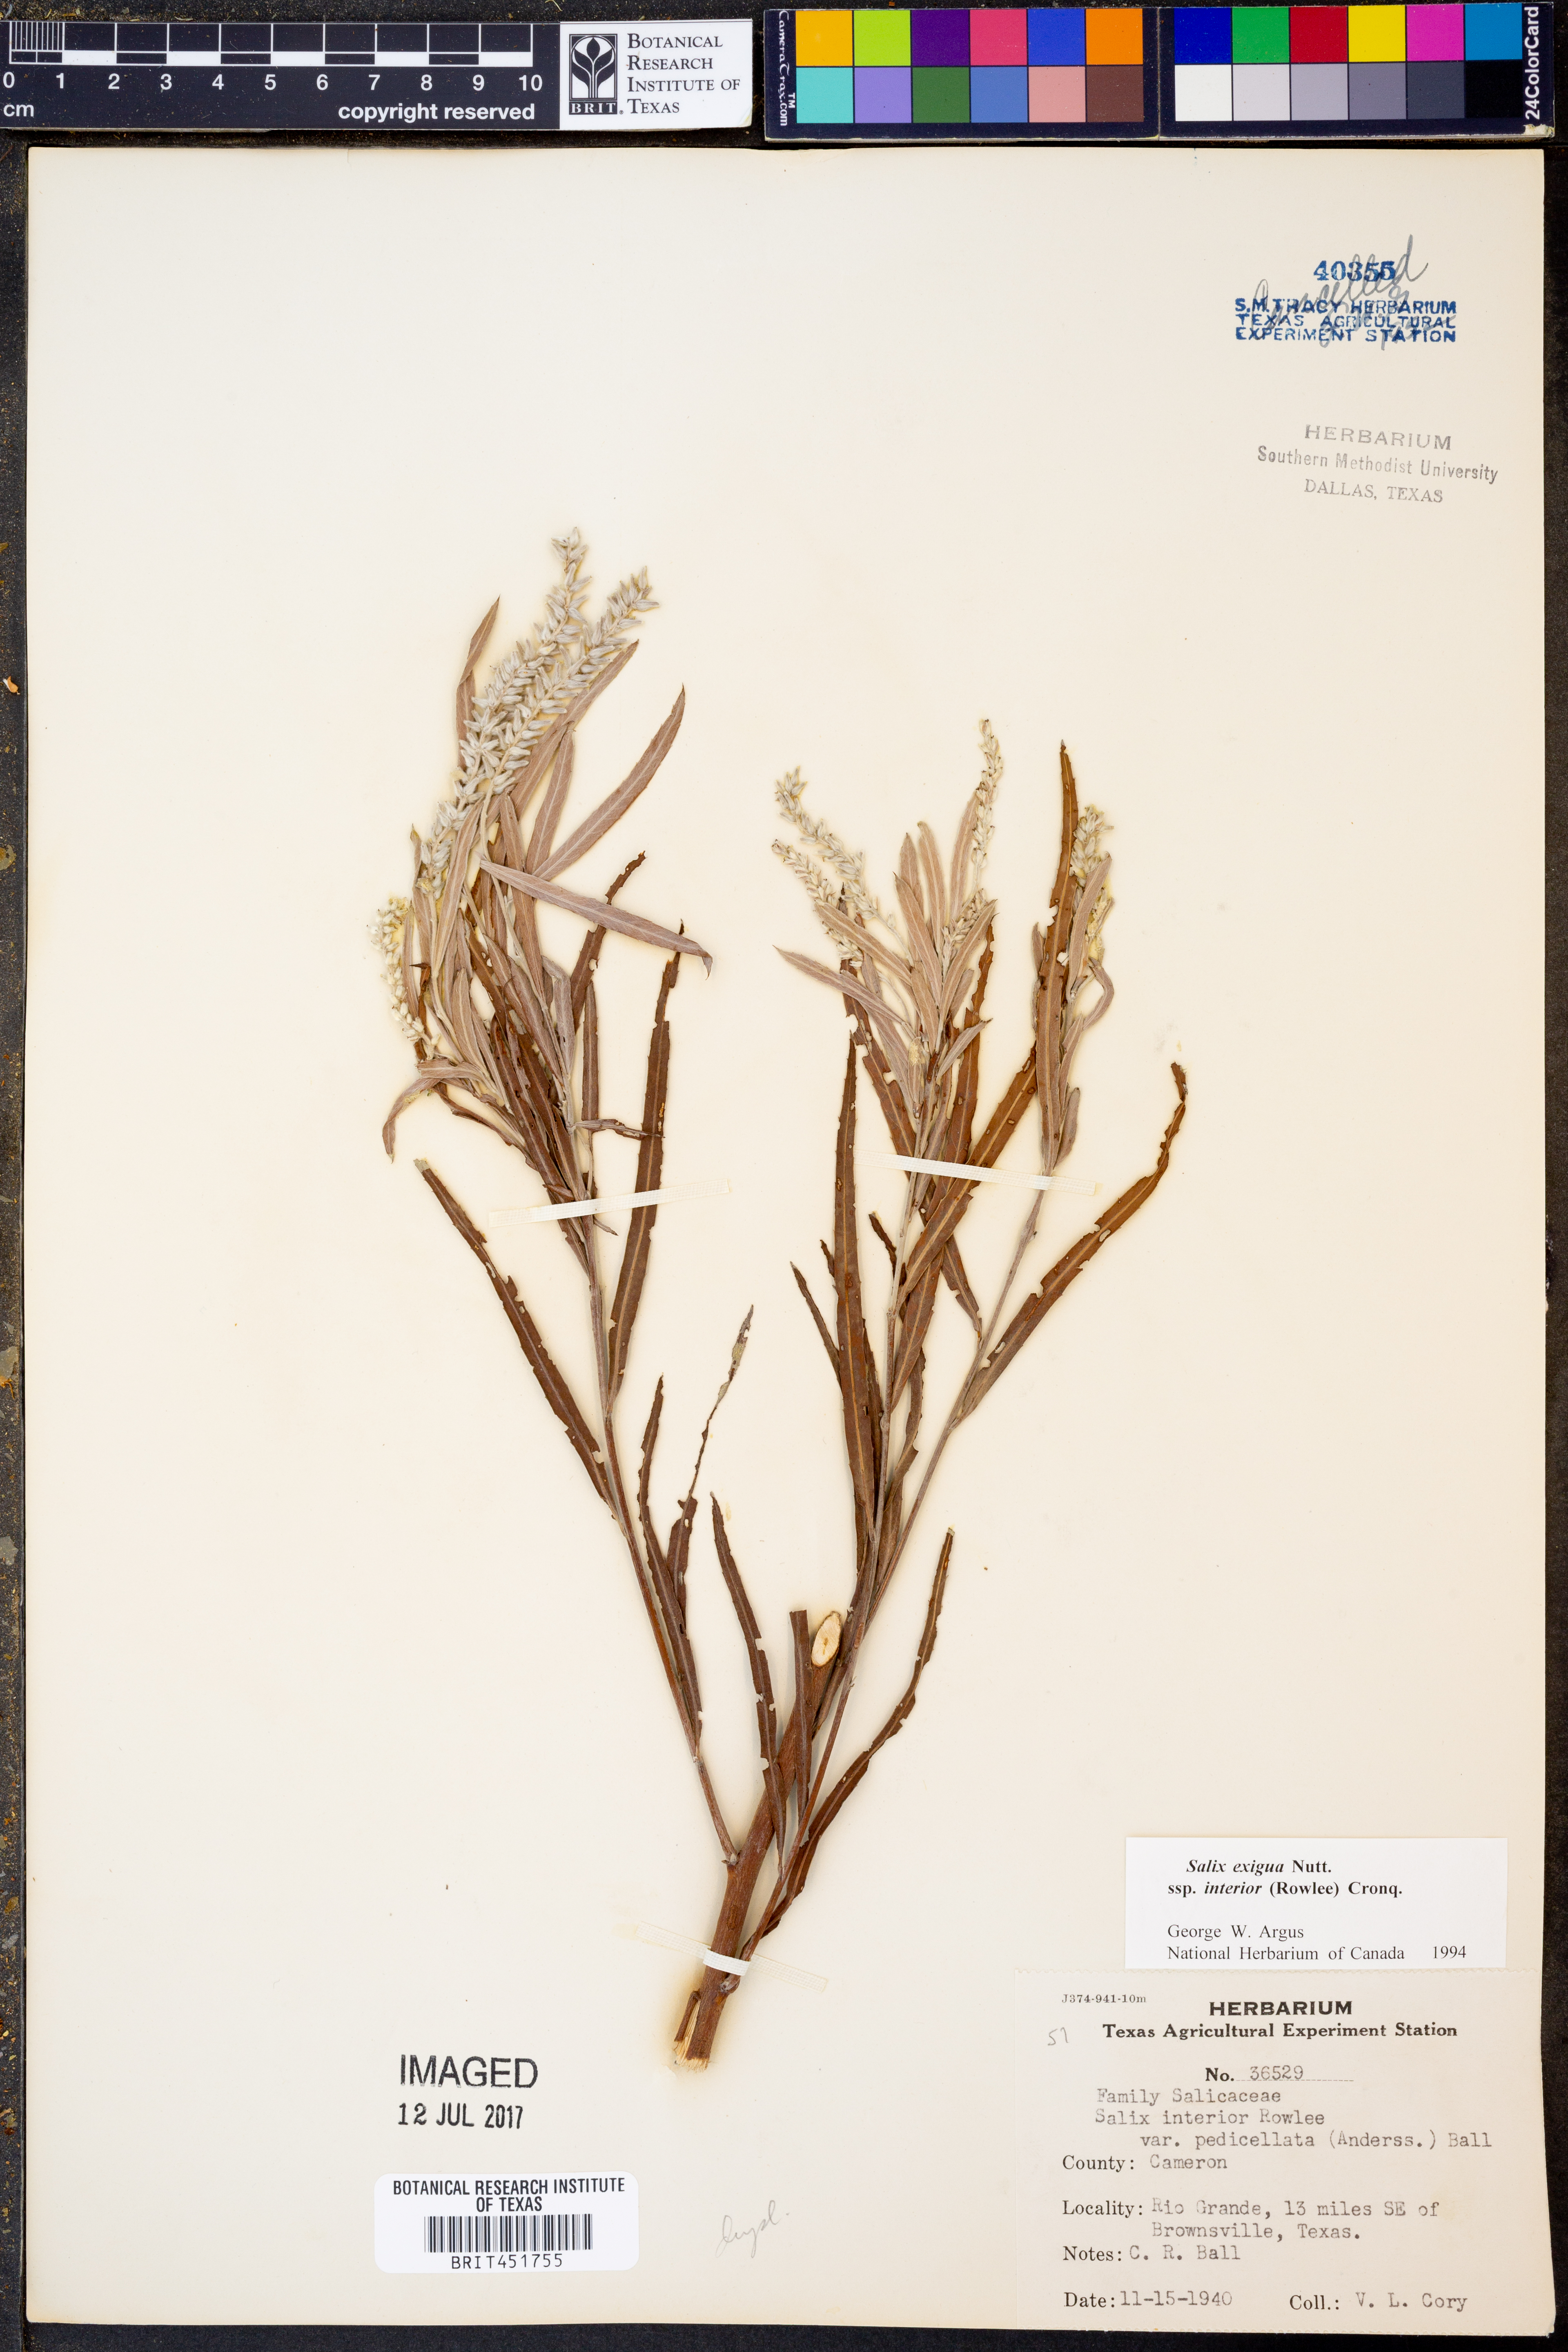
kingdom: Plantae
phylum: Tracheophyta
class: Magnoliopsida
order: Malpighiales
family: Salicaceae
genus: Salix
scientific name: Salix interior
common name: Sandbar willow
